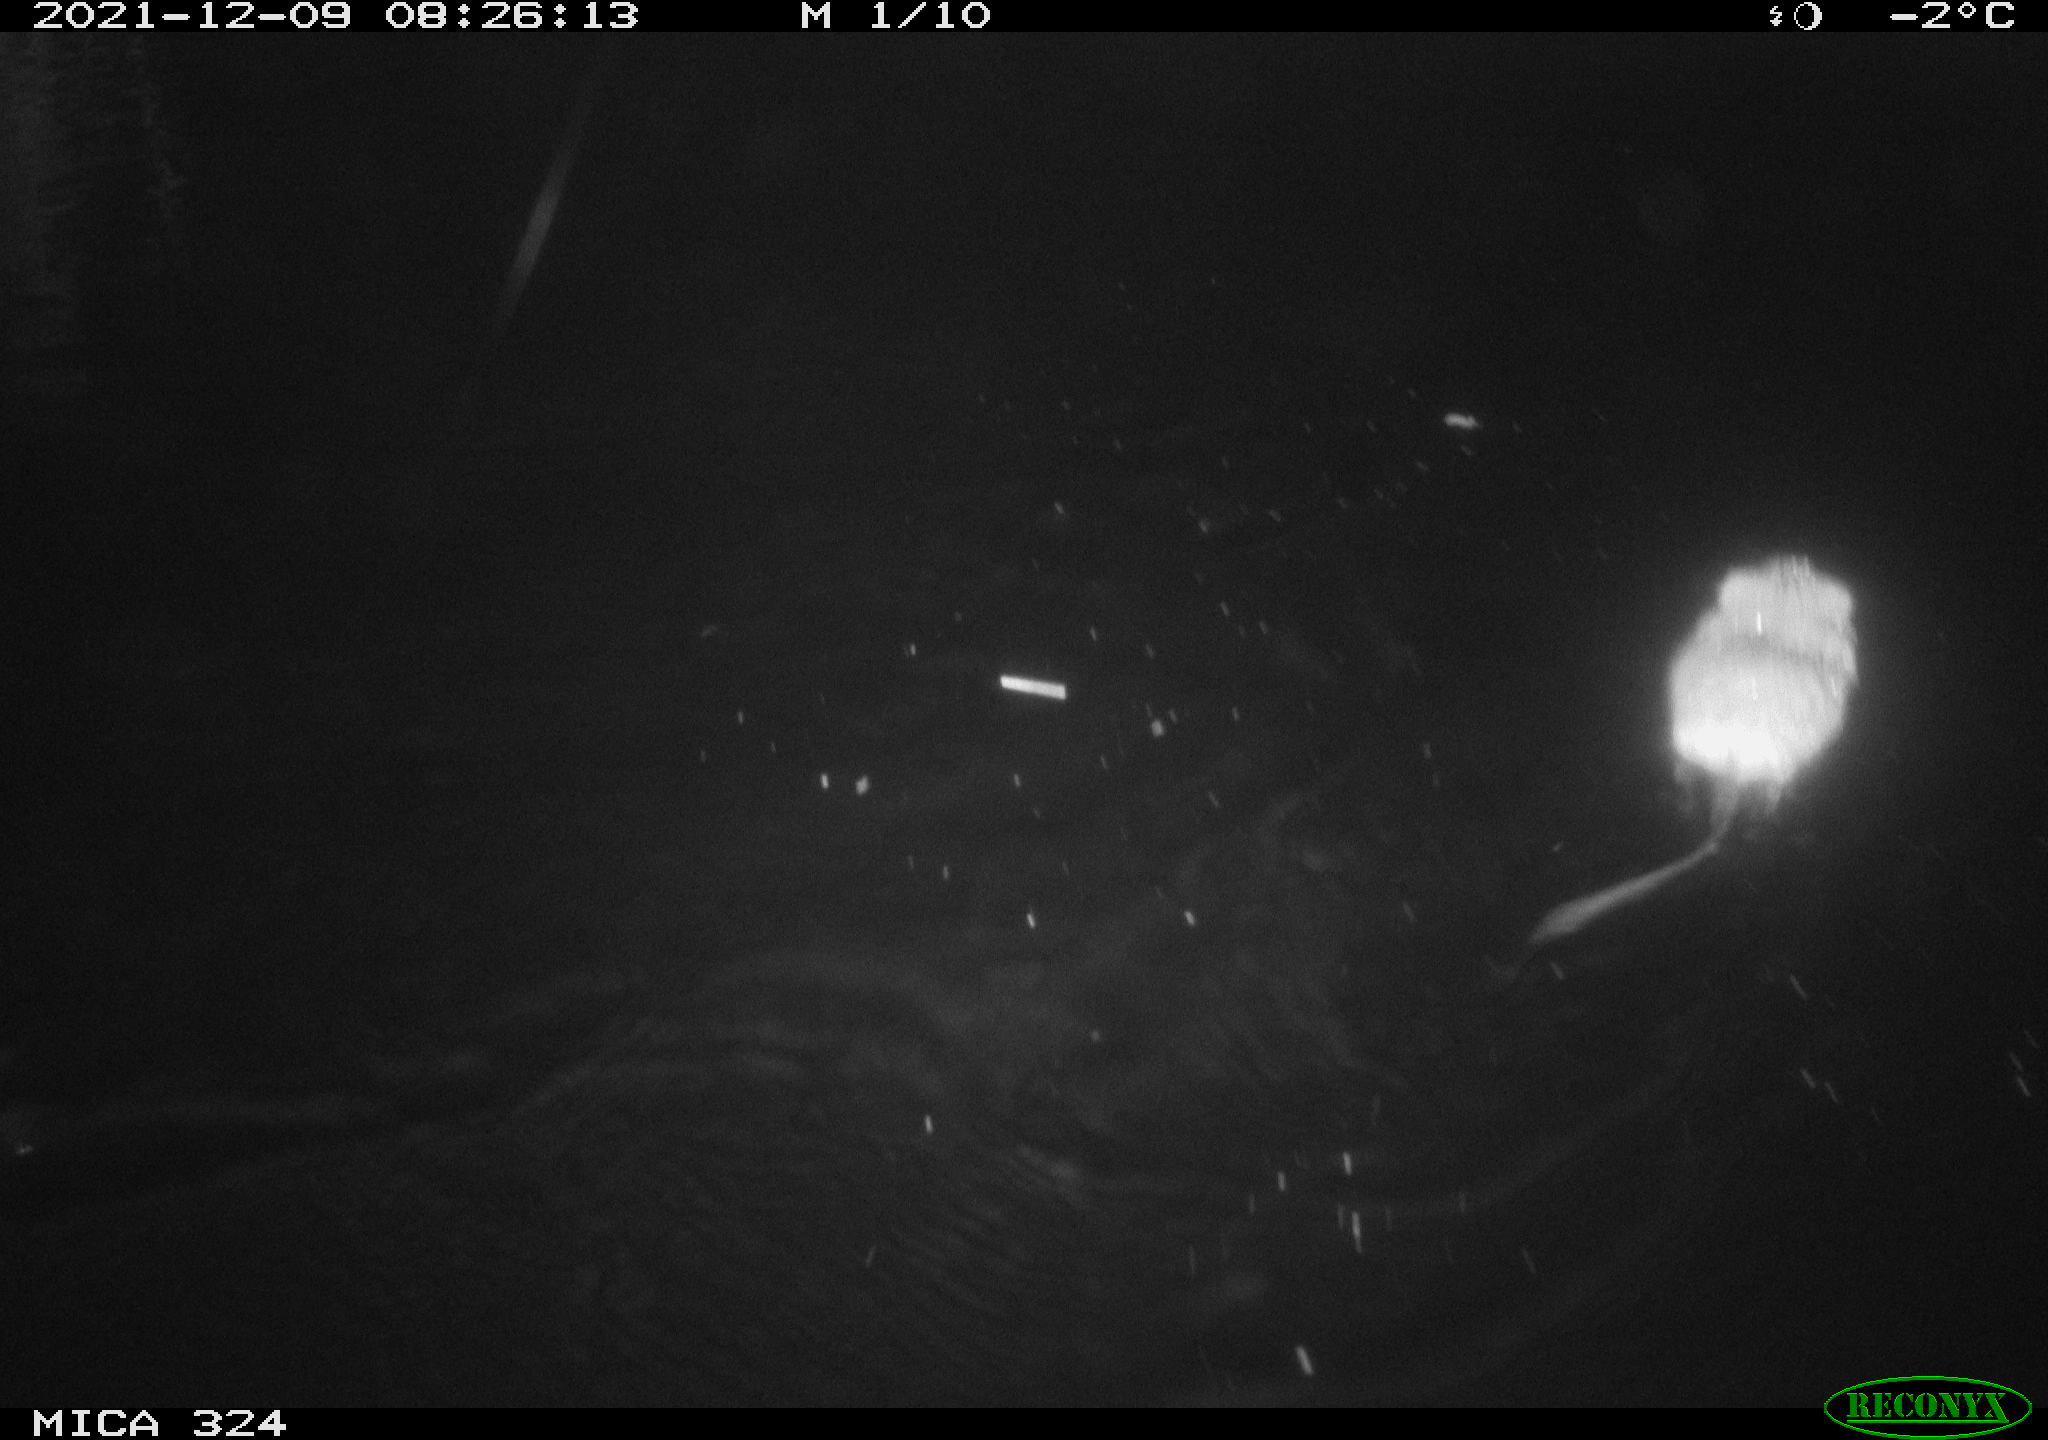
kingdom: Animalia
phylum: Chordata
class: Mammalia
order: Rodentia
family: Cricetidae
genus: Ondatra
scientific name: Ondatra zibethicus
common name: Muskrat
